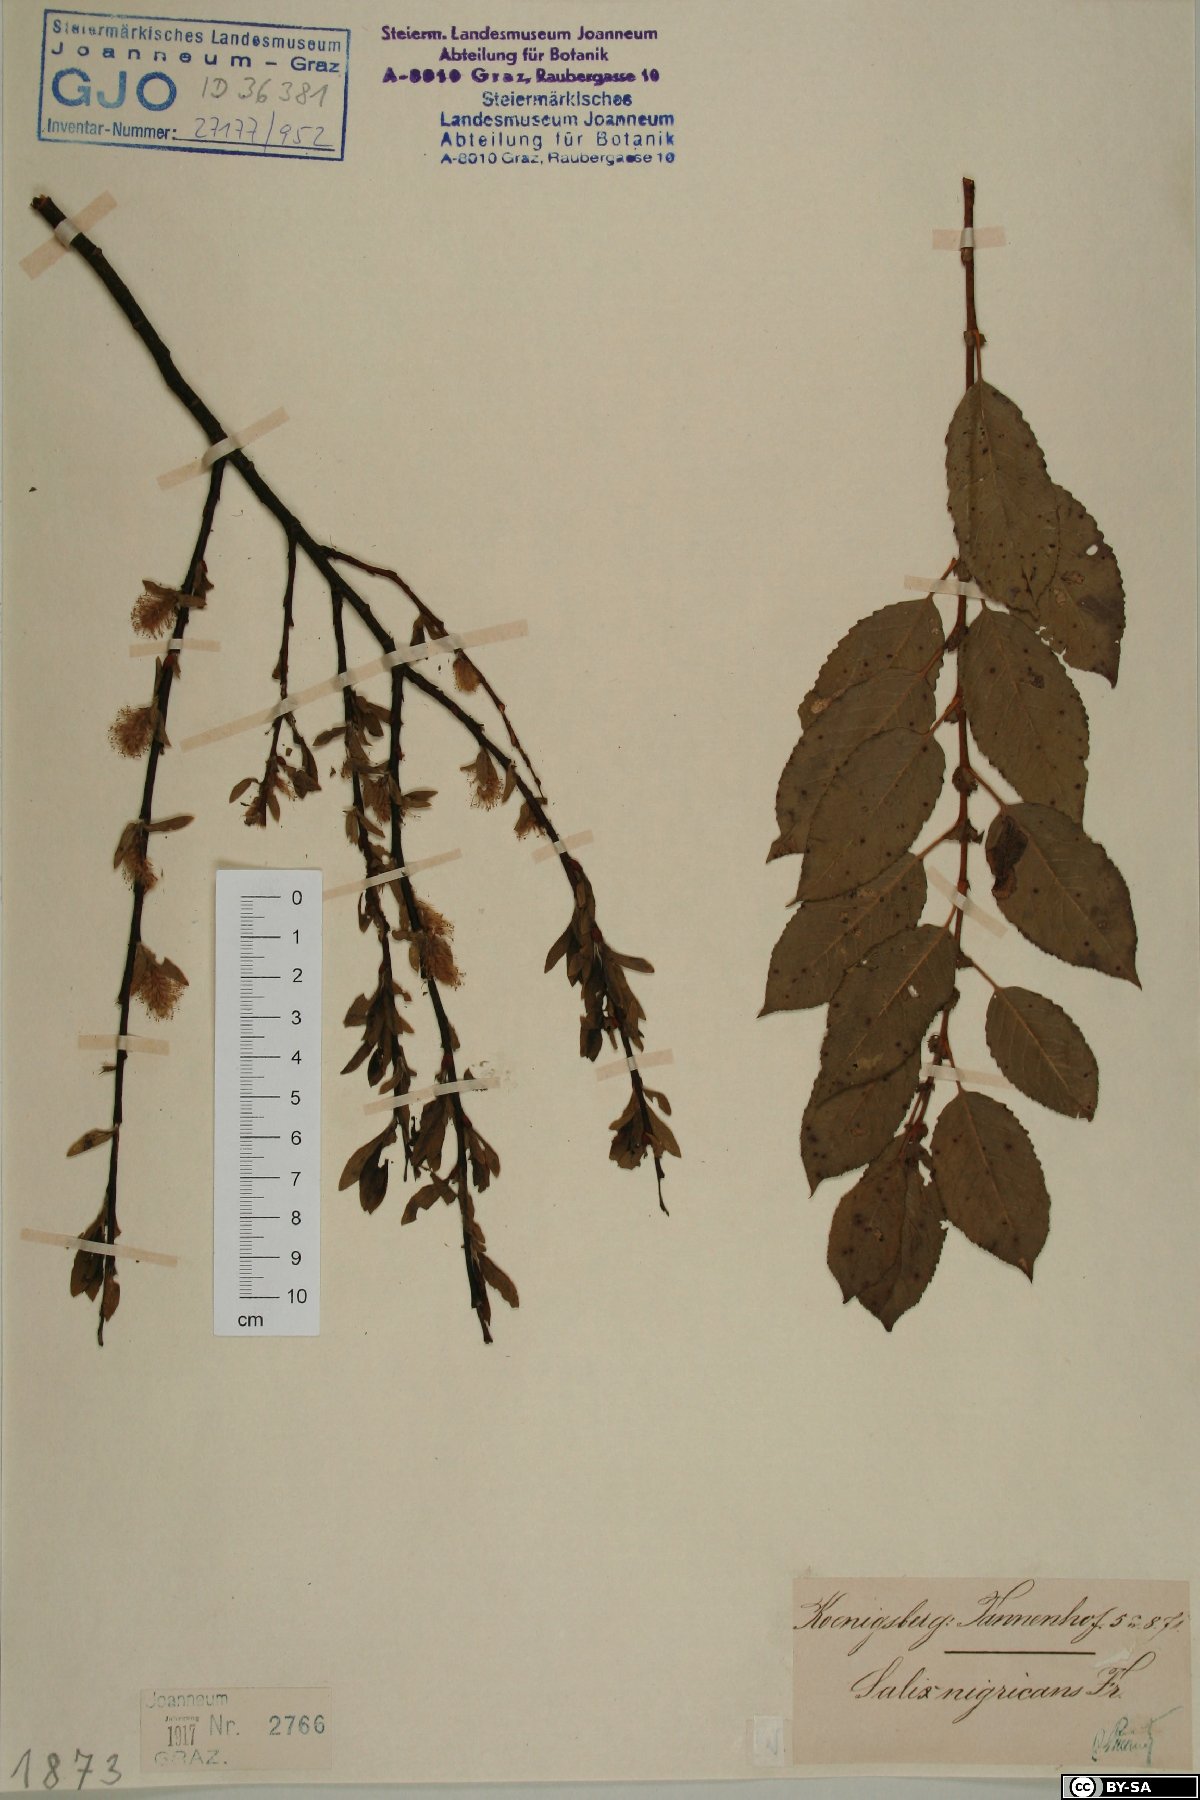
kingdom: Plantae
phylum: Tracheophyta
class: Magnoliopsida
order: Malpighiales
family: Salicaceae
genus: Salix
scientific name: Salix myrsinifolia
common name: Dark-leaved willow
